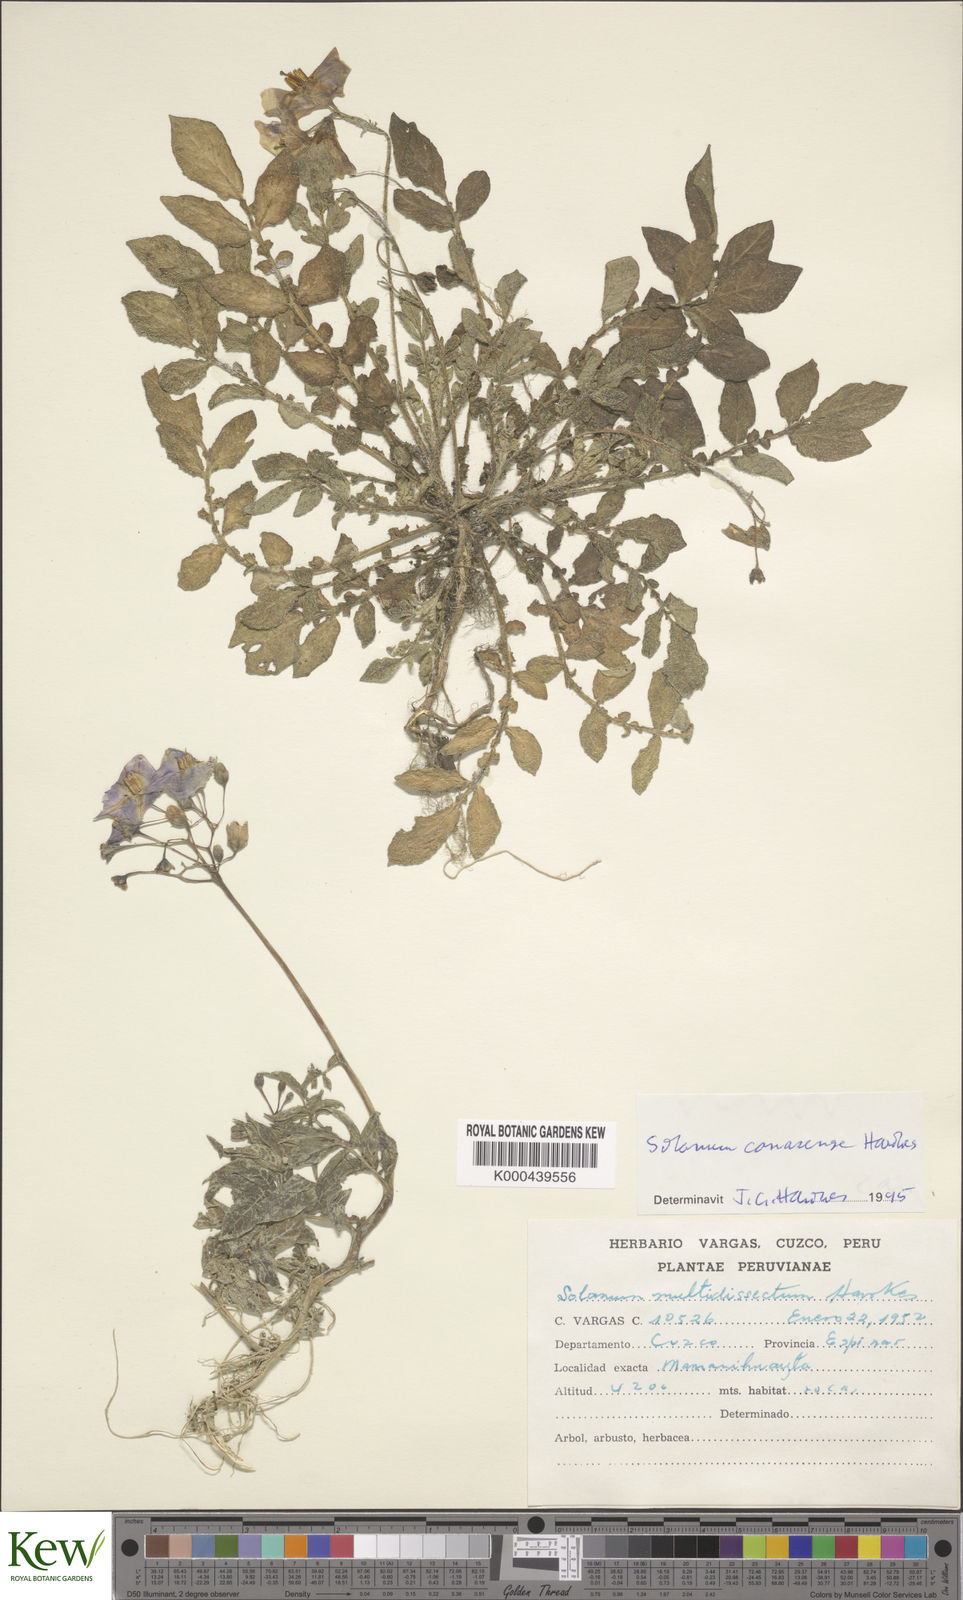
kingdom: Plantae
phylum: Tracheophyta
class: Magnoliopsida
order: Solanales
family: Solanaceae
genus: Solanum
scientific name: Solanum candolleanum
